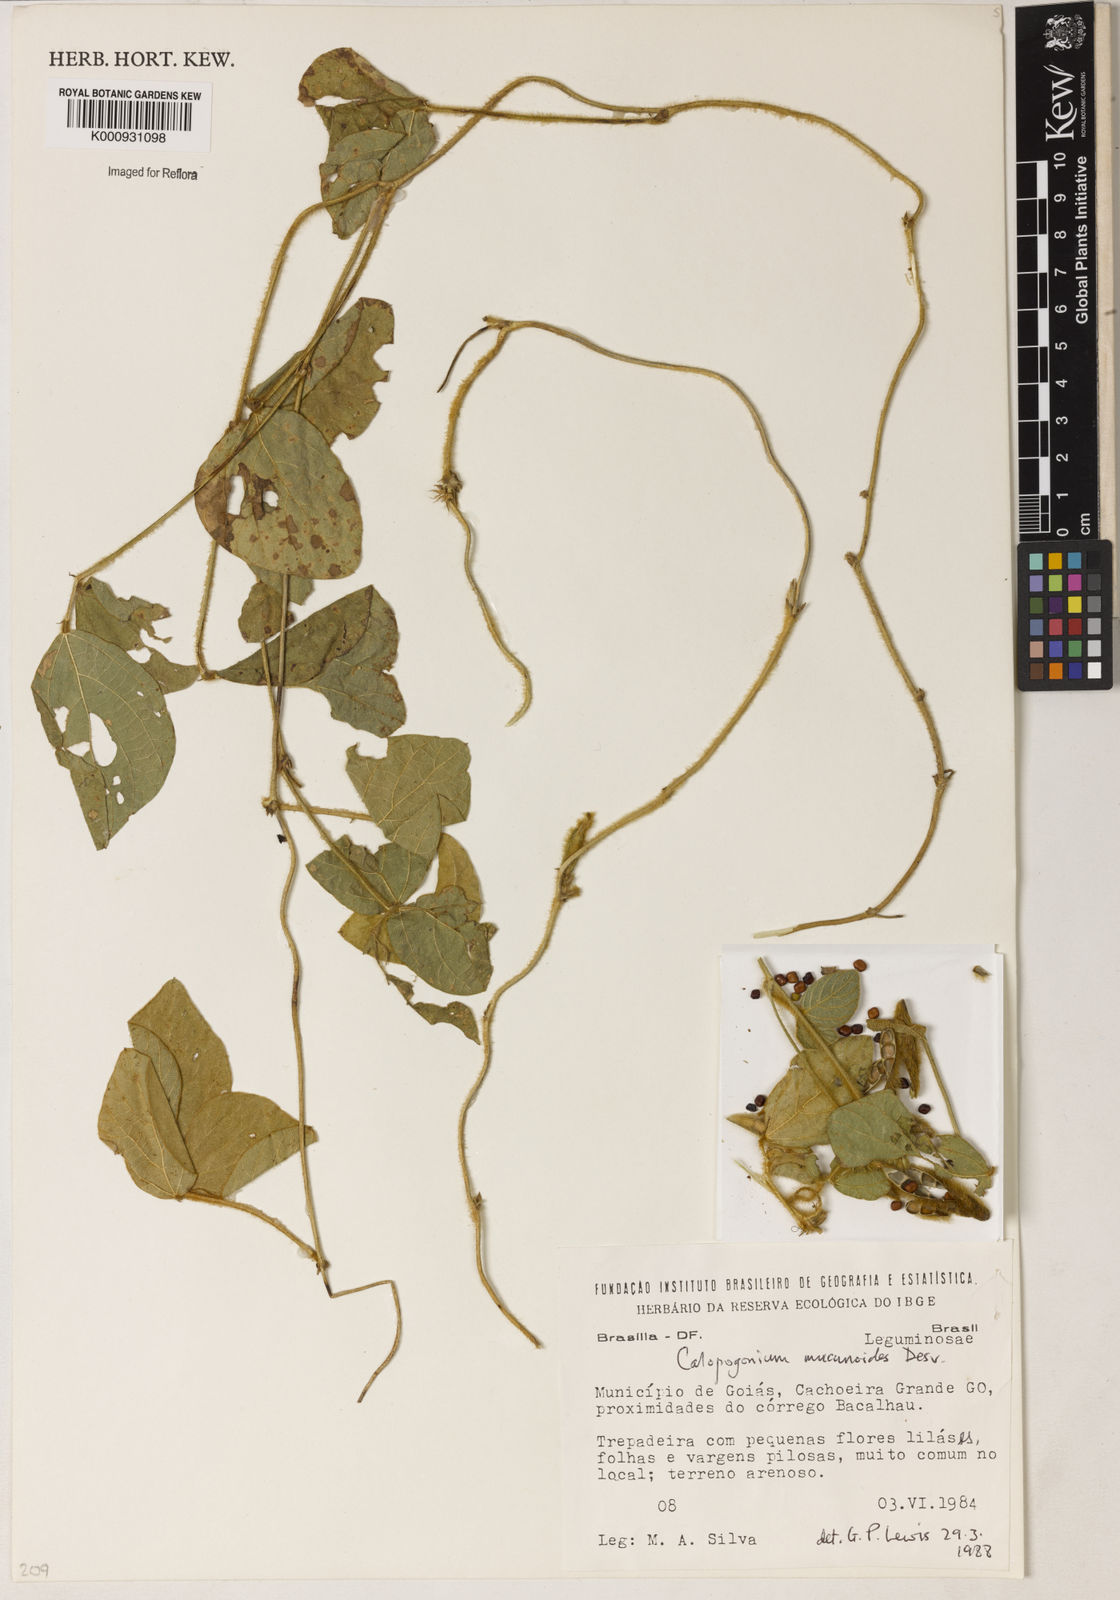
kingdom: Plantae
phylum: Tracheophyta
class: Magnoliopsida
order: Fabales
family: Fabaceae
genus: Calopogonium
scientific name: Calopogonium mucunoides
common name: Calopo
